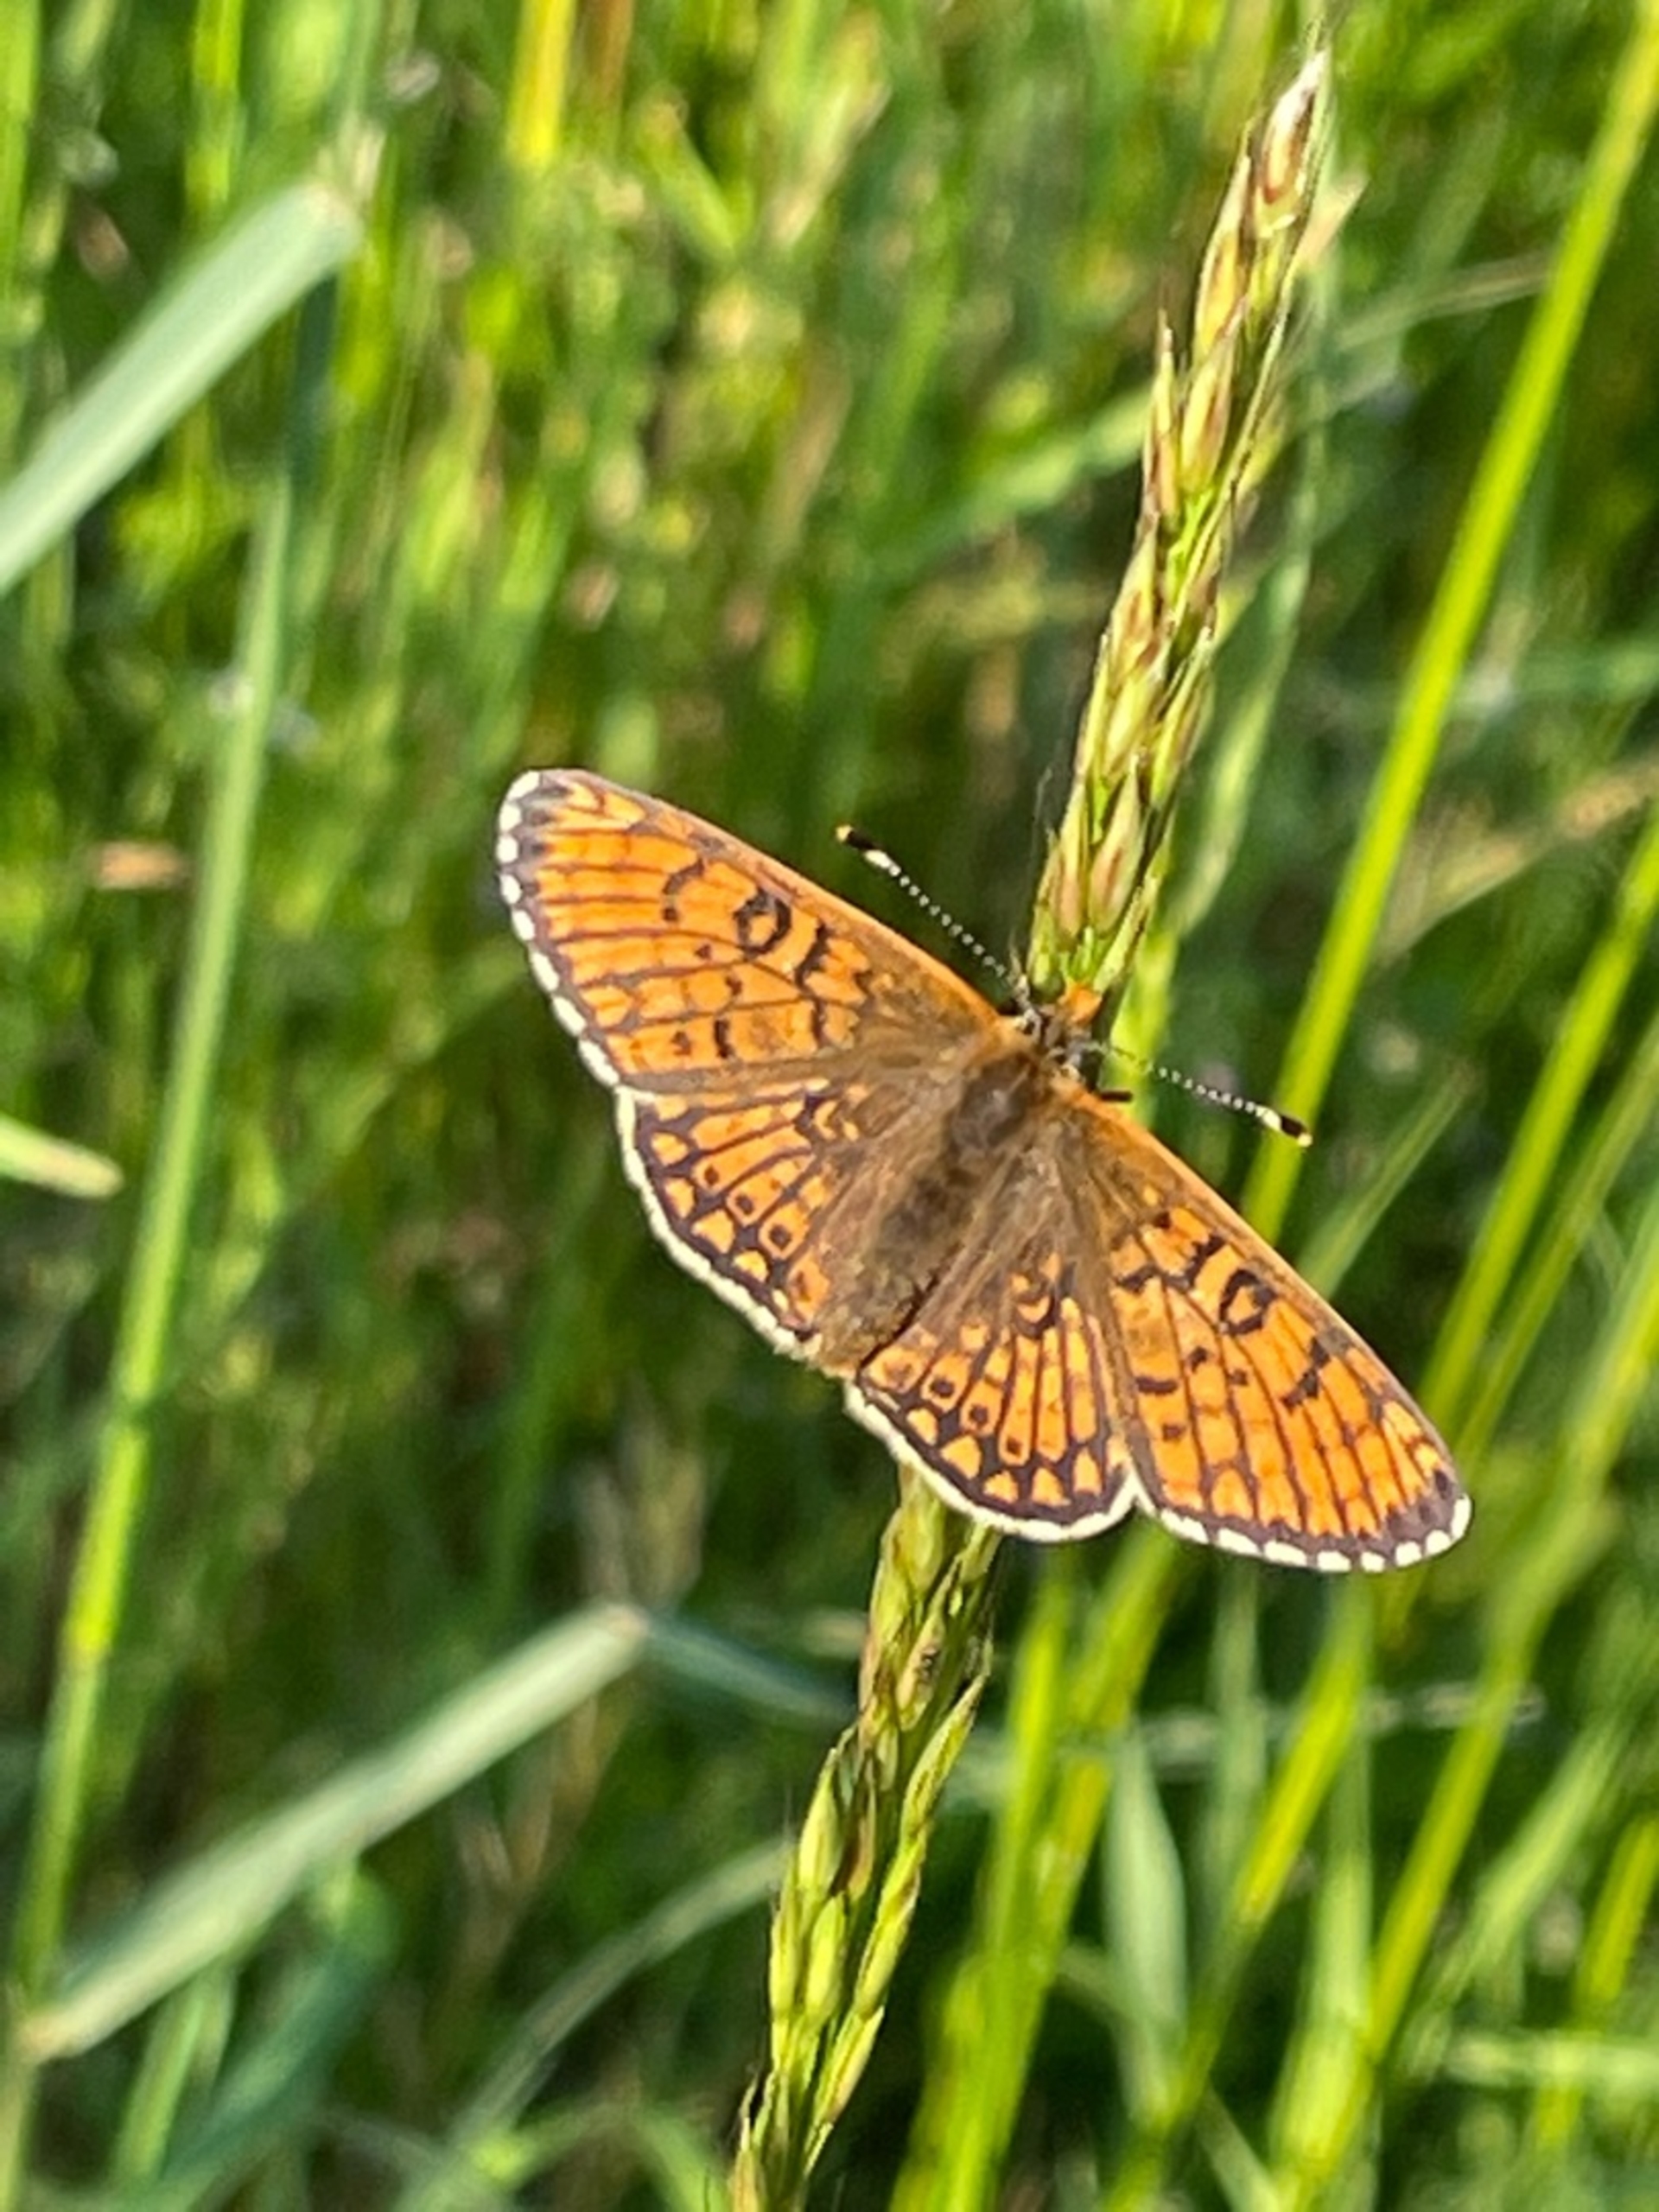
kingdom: Animalia
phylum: Arthropoda
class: Insecta
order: Lepidoptera
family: Nymphalidae
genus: Melitaea
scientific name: Melitaea cinxia
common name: Okkergul pletvinge
